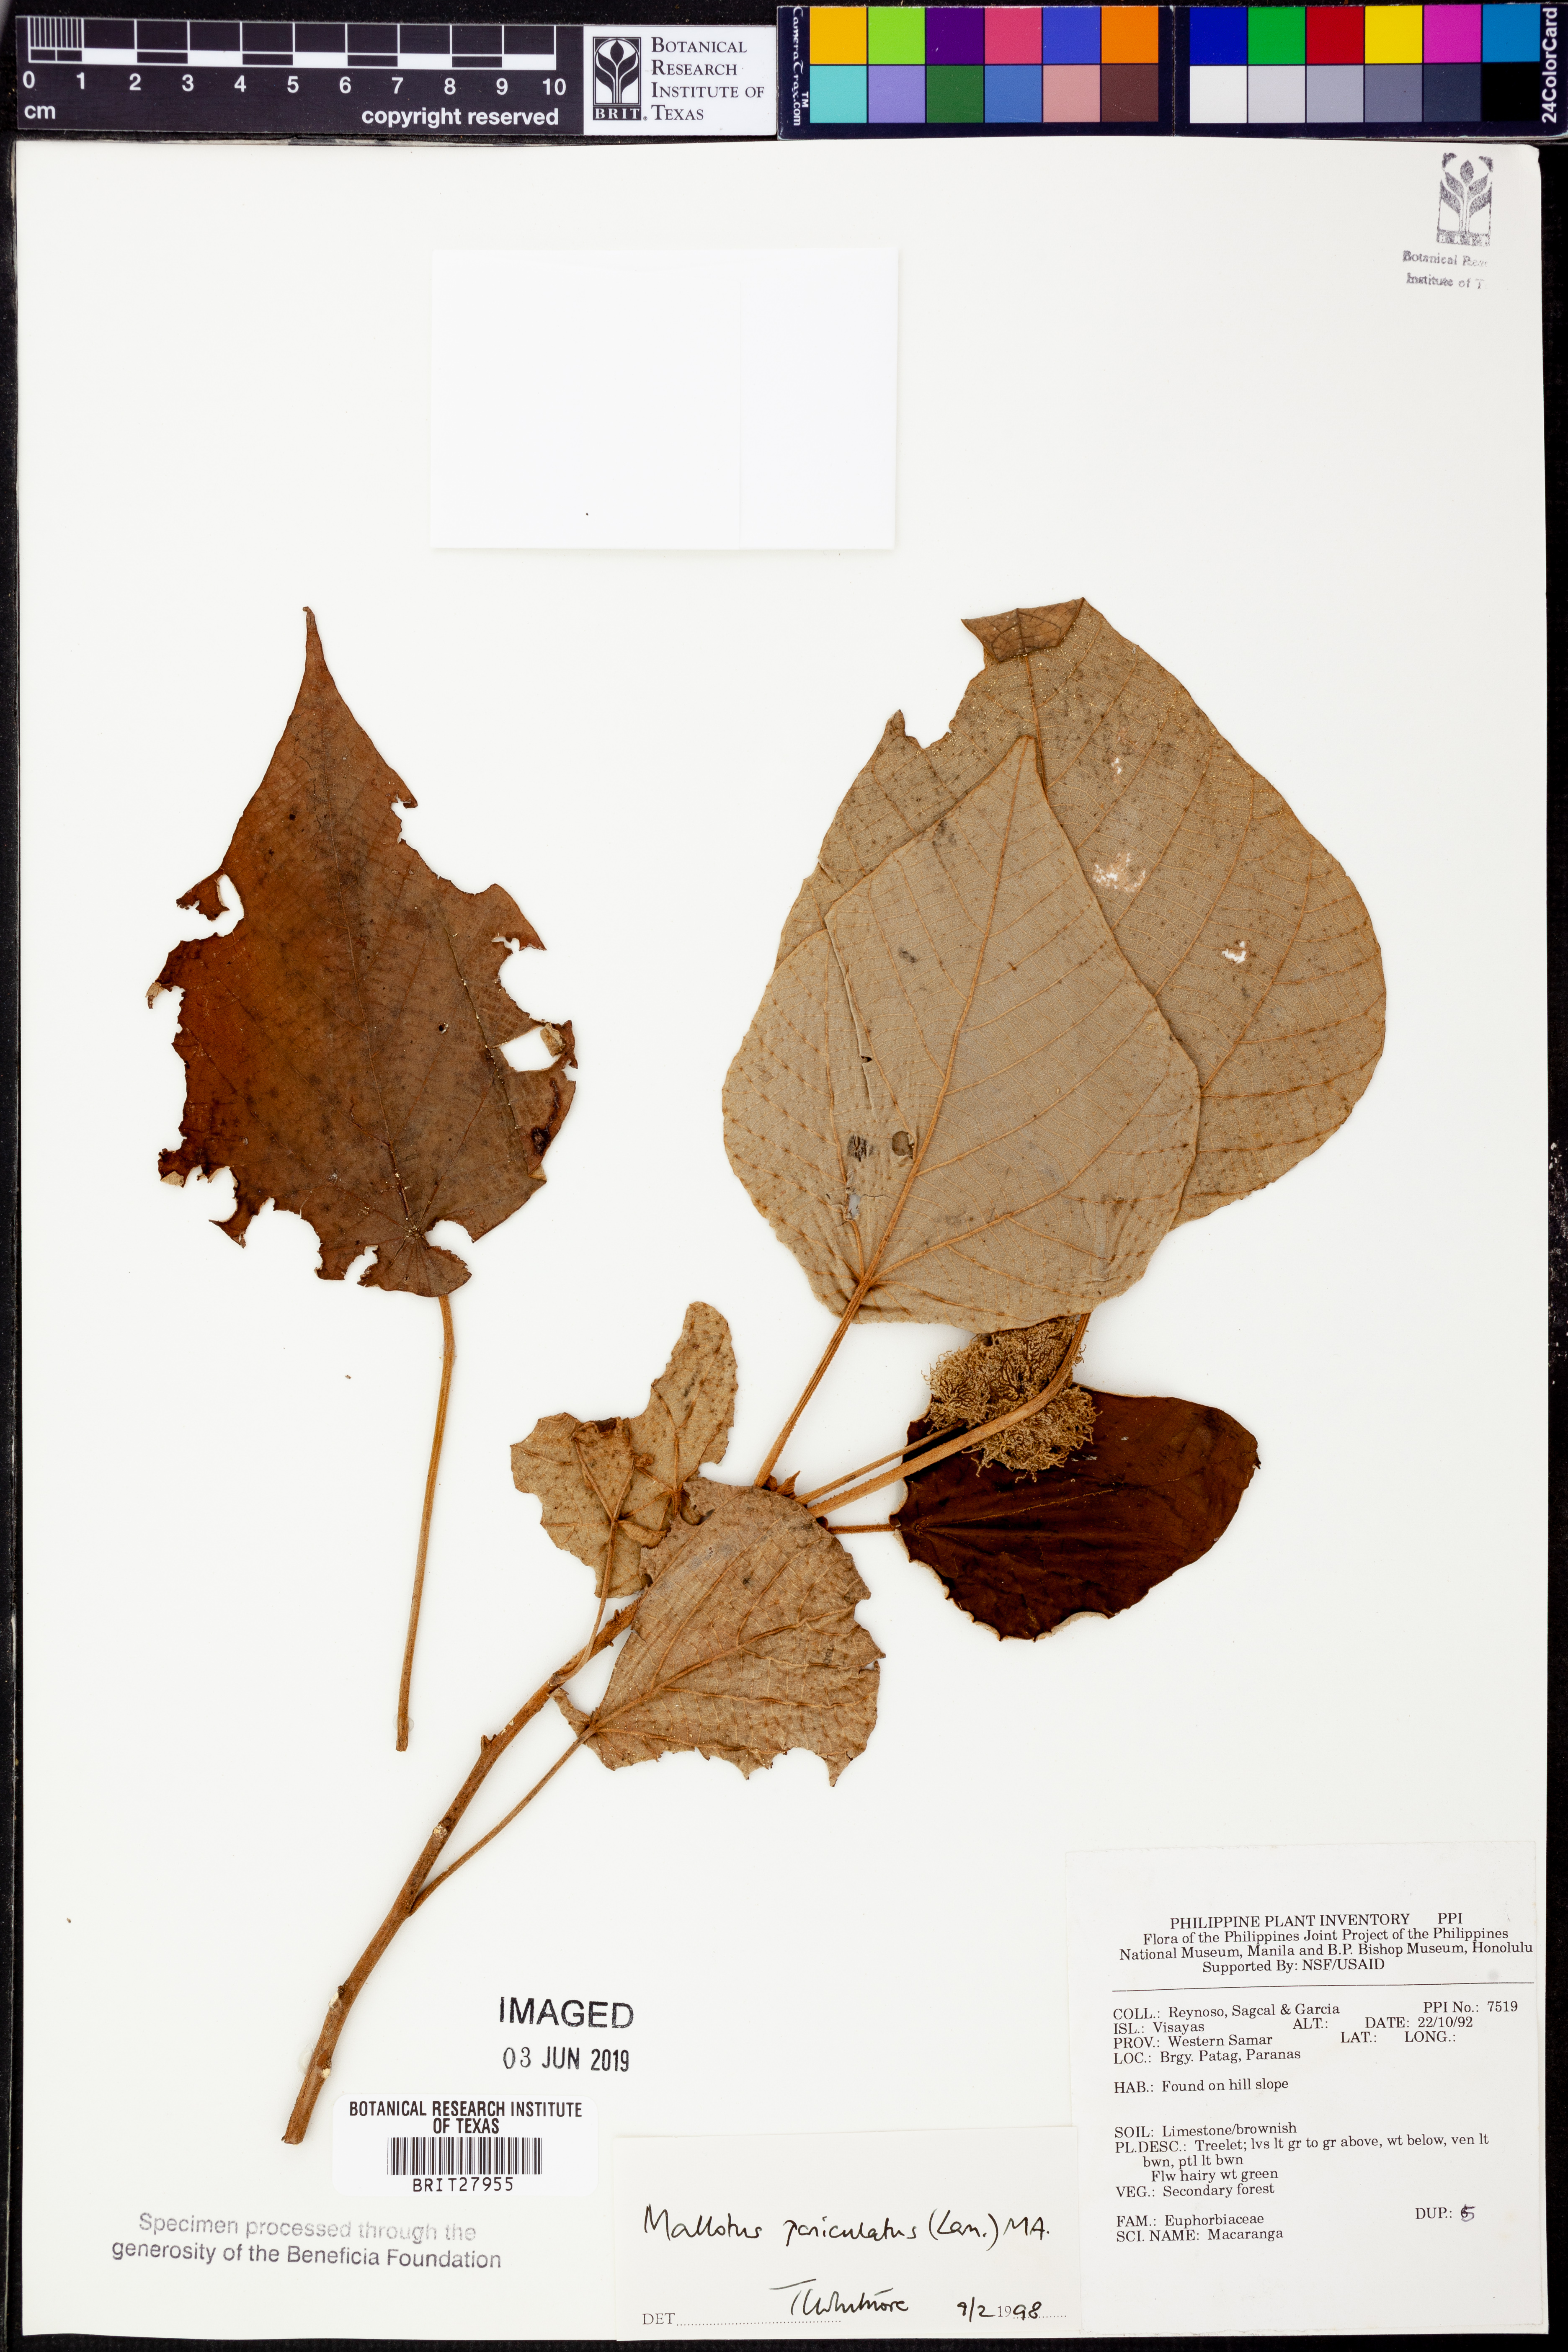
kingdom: Plantae
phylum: Tracheophyta
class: Magnoliopsida
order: Malpighiales
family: Euphorbiaceae
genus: Mallotus
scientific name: Mallotus paniculatus
